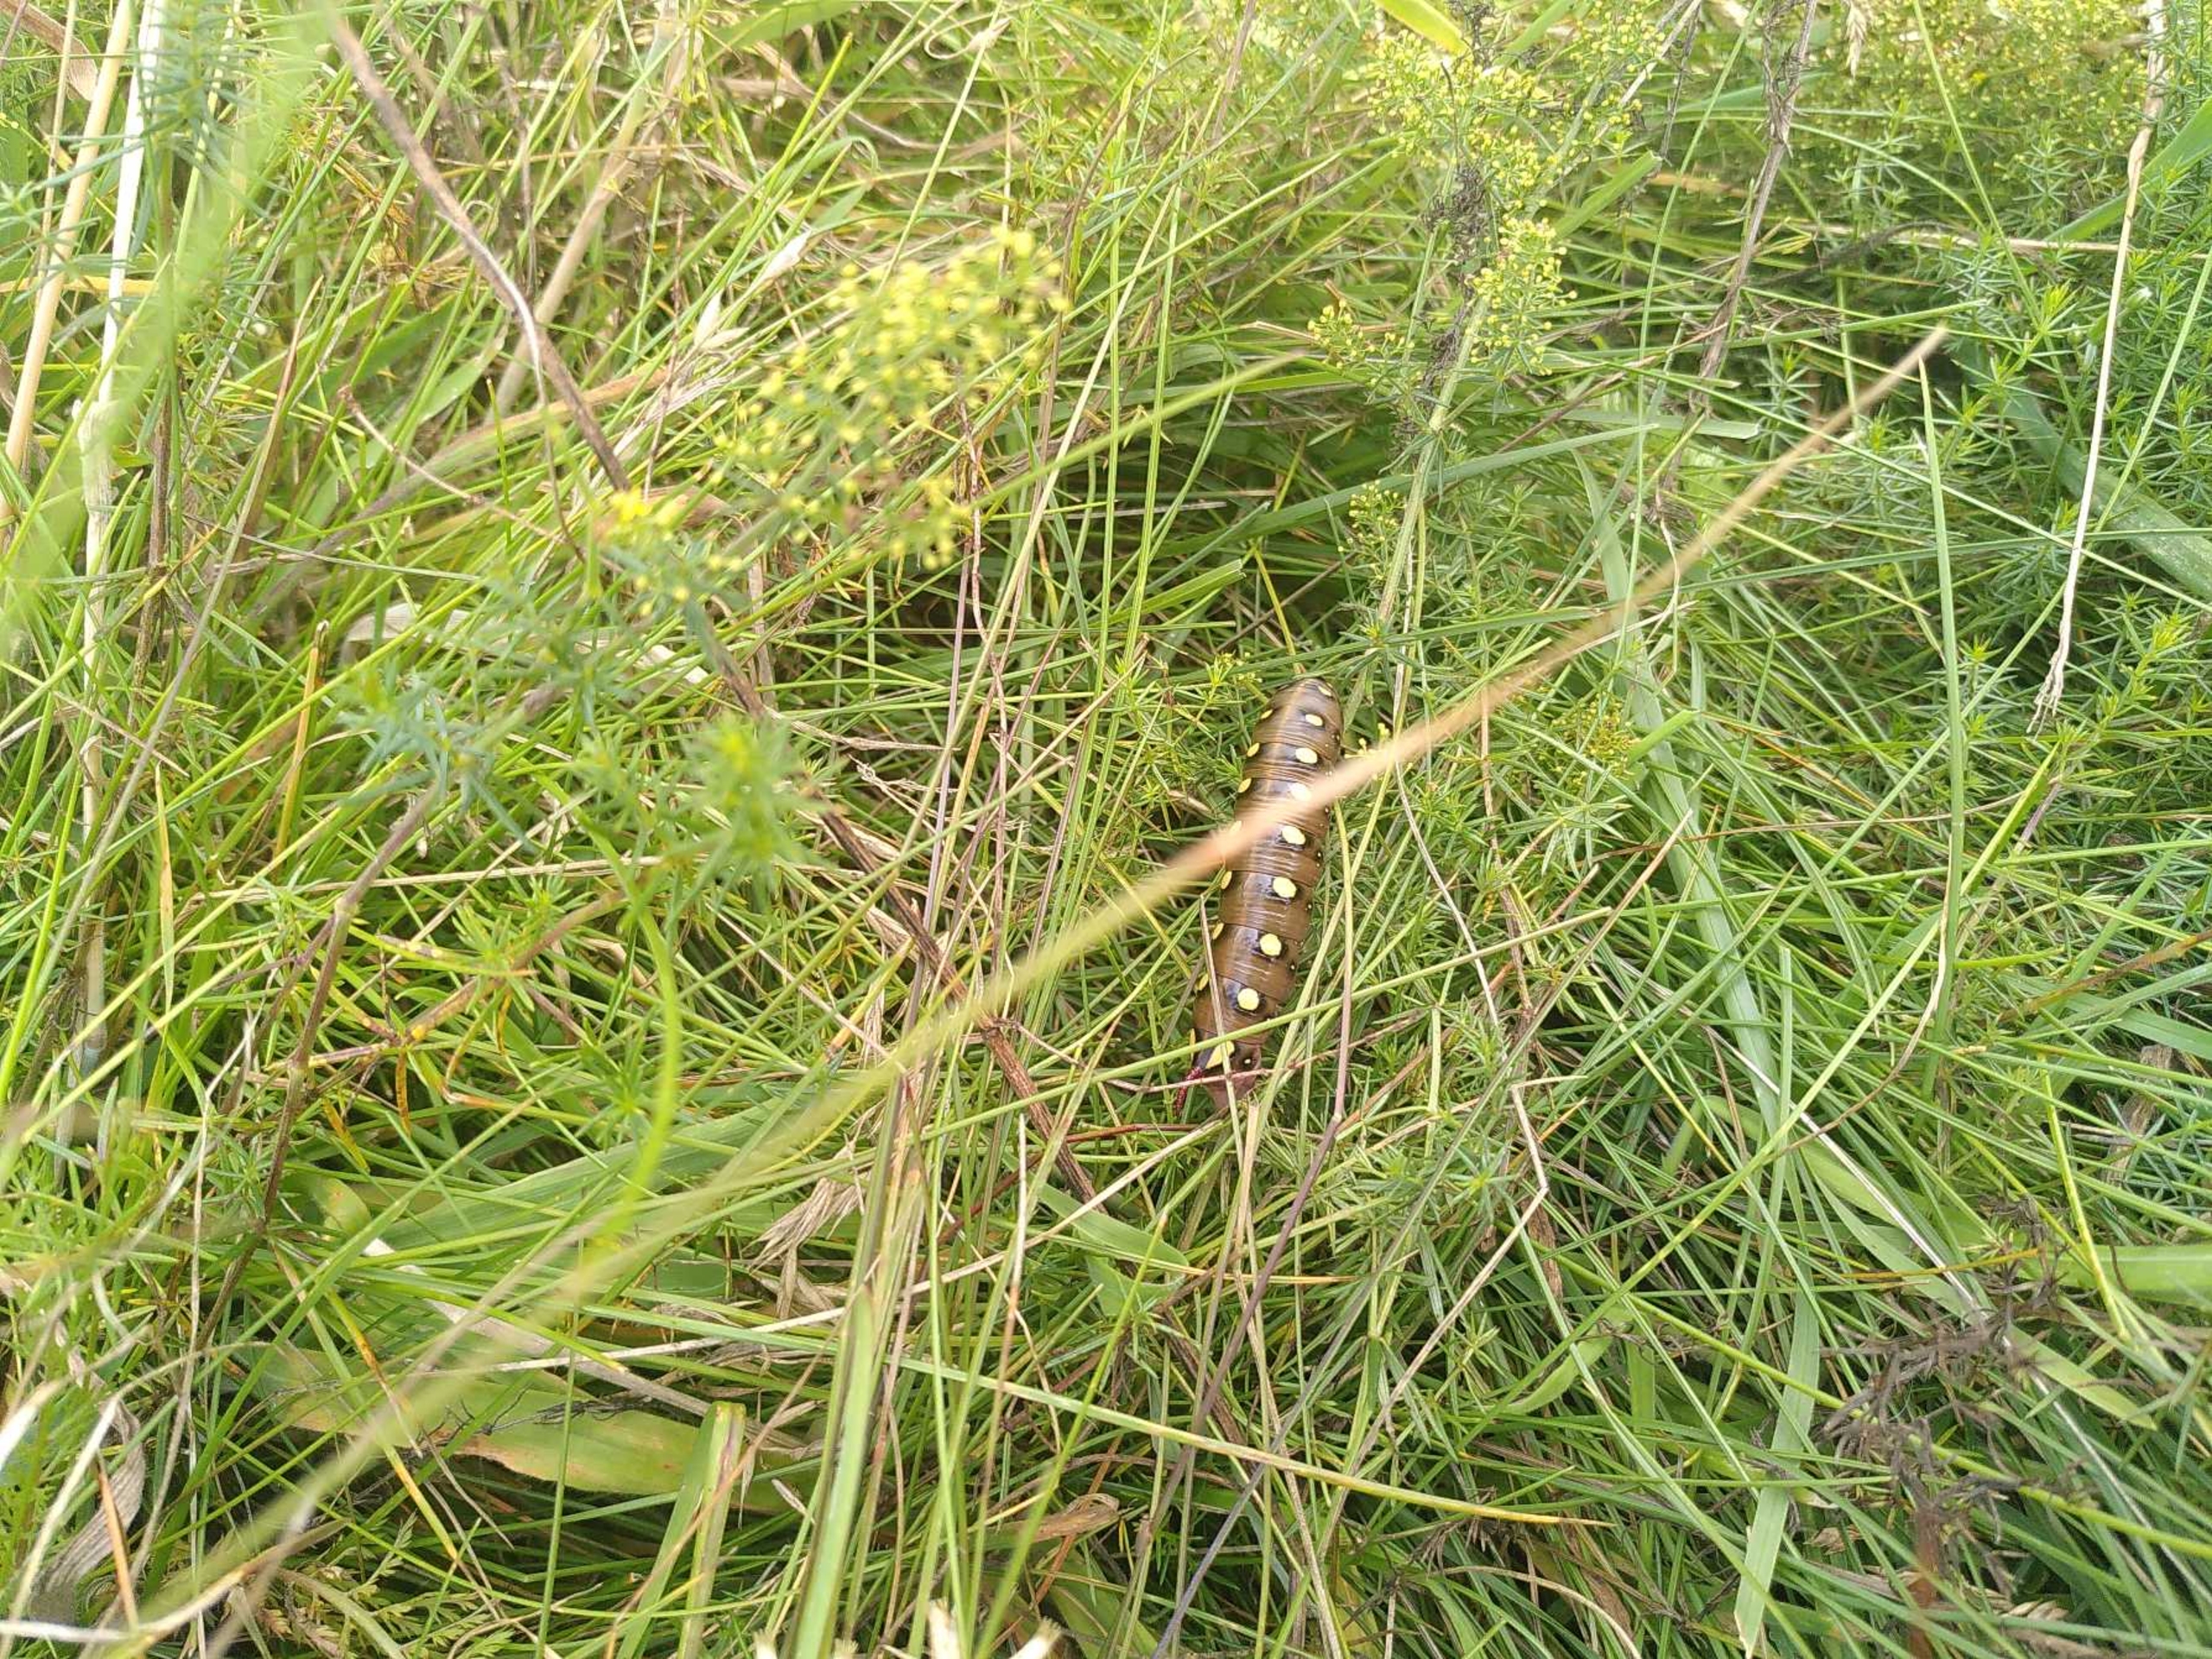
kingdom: Animalia
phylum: Arthropoda
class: Insecta
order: Lepidoptera
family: Sphingidae
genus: Hyles
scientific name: Hyles gallii
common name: Snerresværmer
